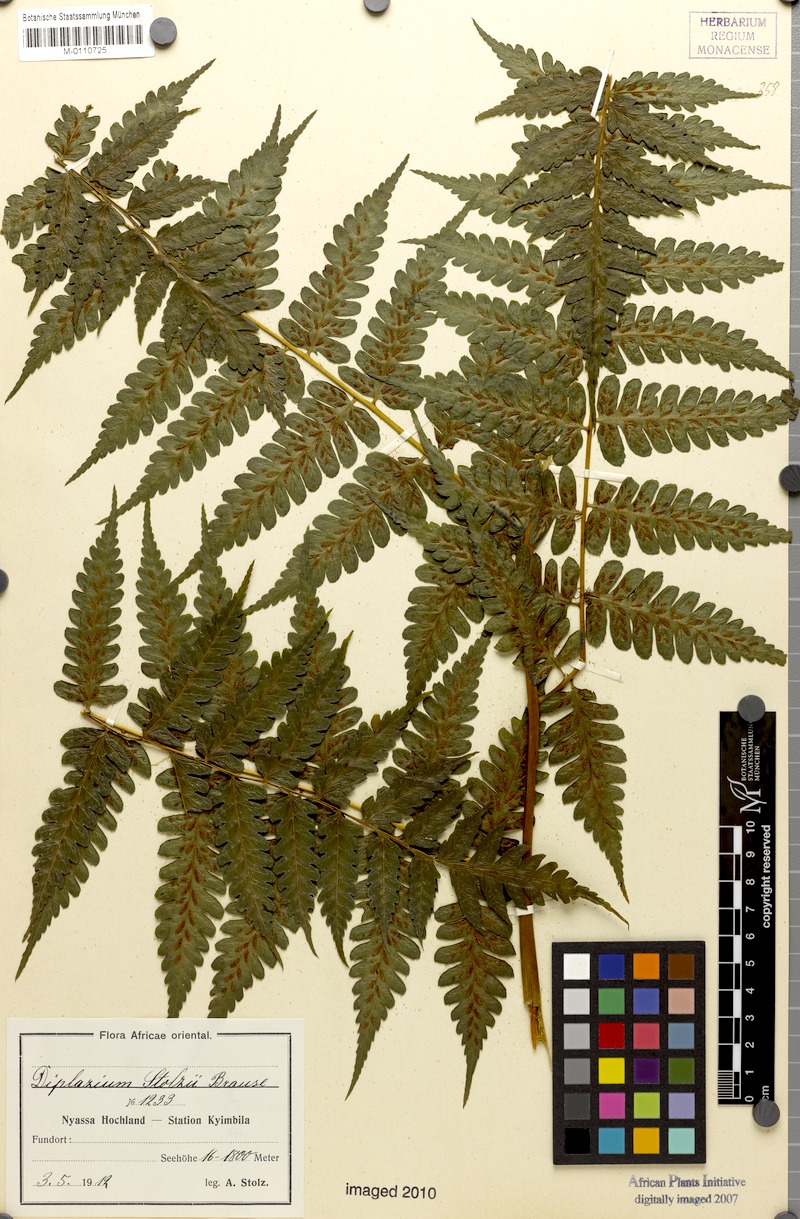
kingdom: Plantae
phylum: Tracheophyta
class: Polypodiopsida
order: Polypodiales
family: Athyriaceae
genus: Diplazium
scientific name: Diplazium nemorale
